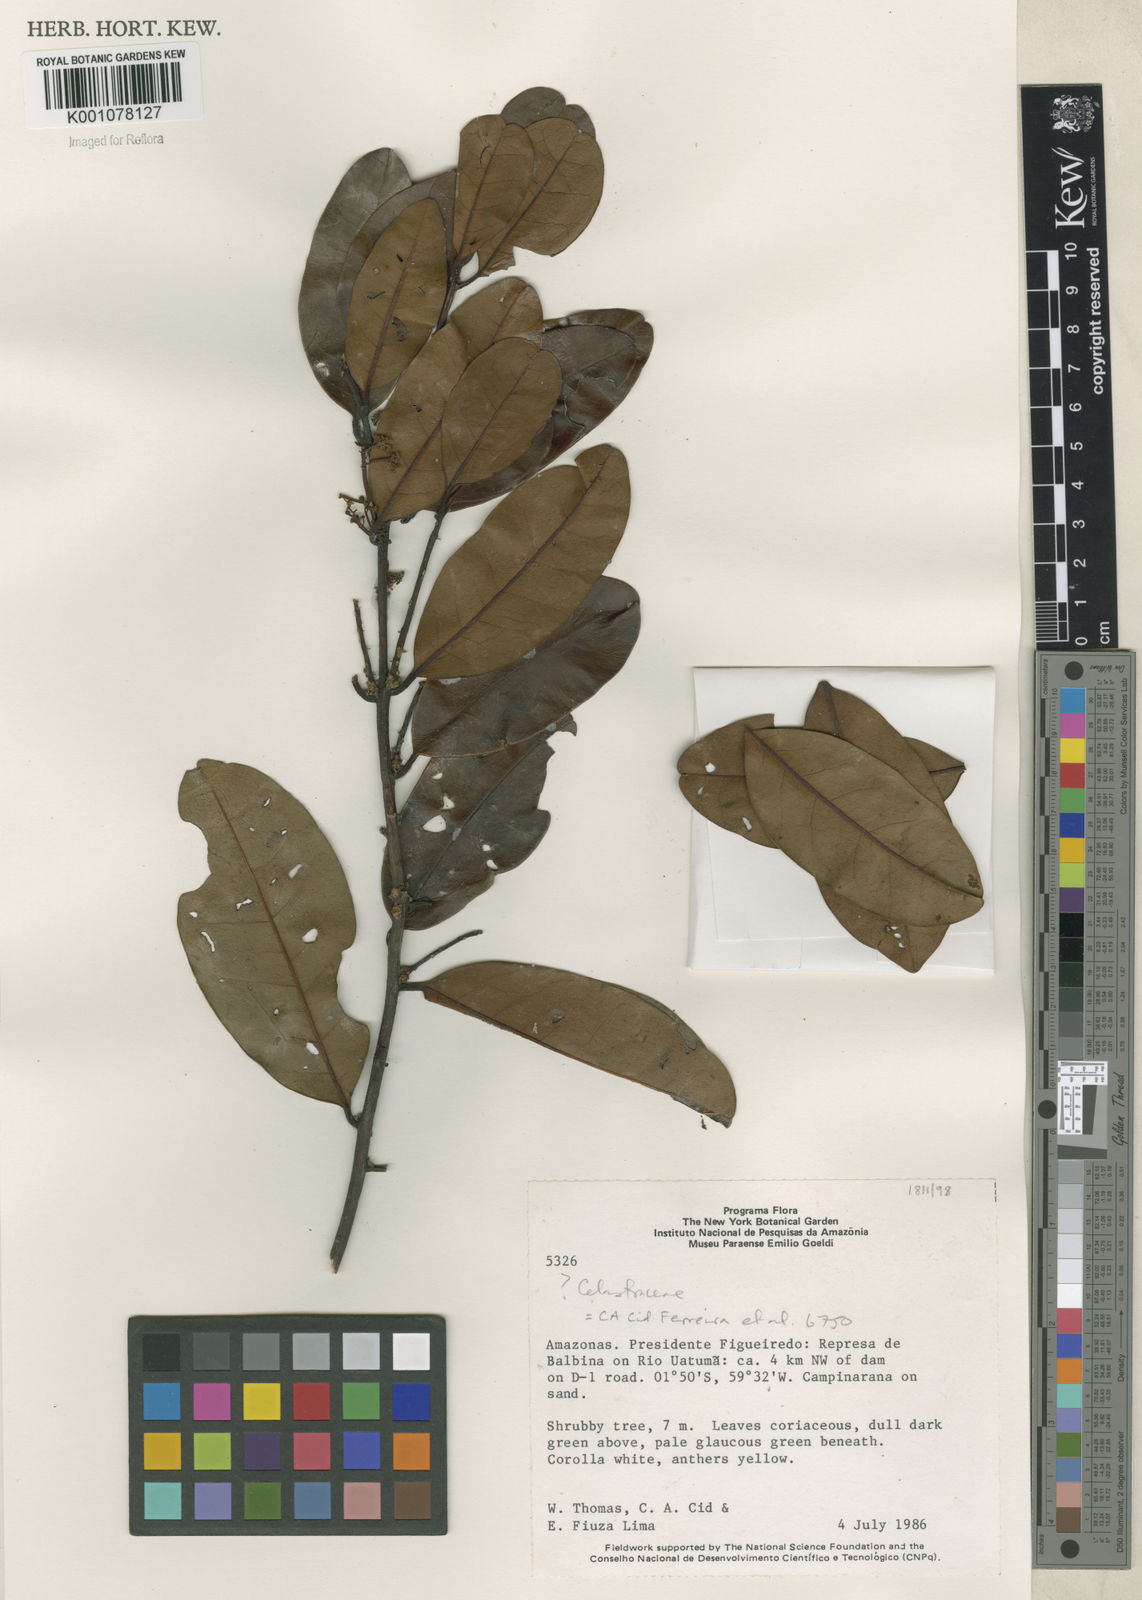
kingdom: Plantae
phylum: Tracheophyta
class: Magnoliopsida
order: Celastrales
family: Celastraceae
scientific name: Celastraceae
